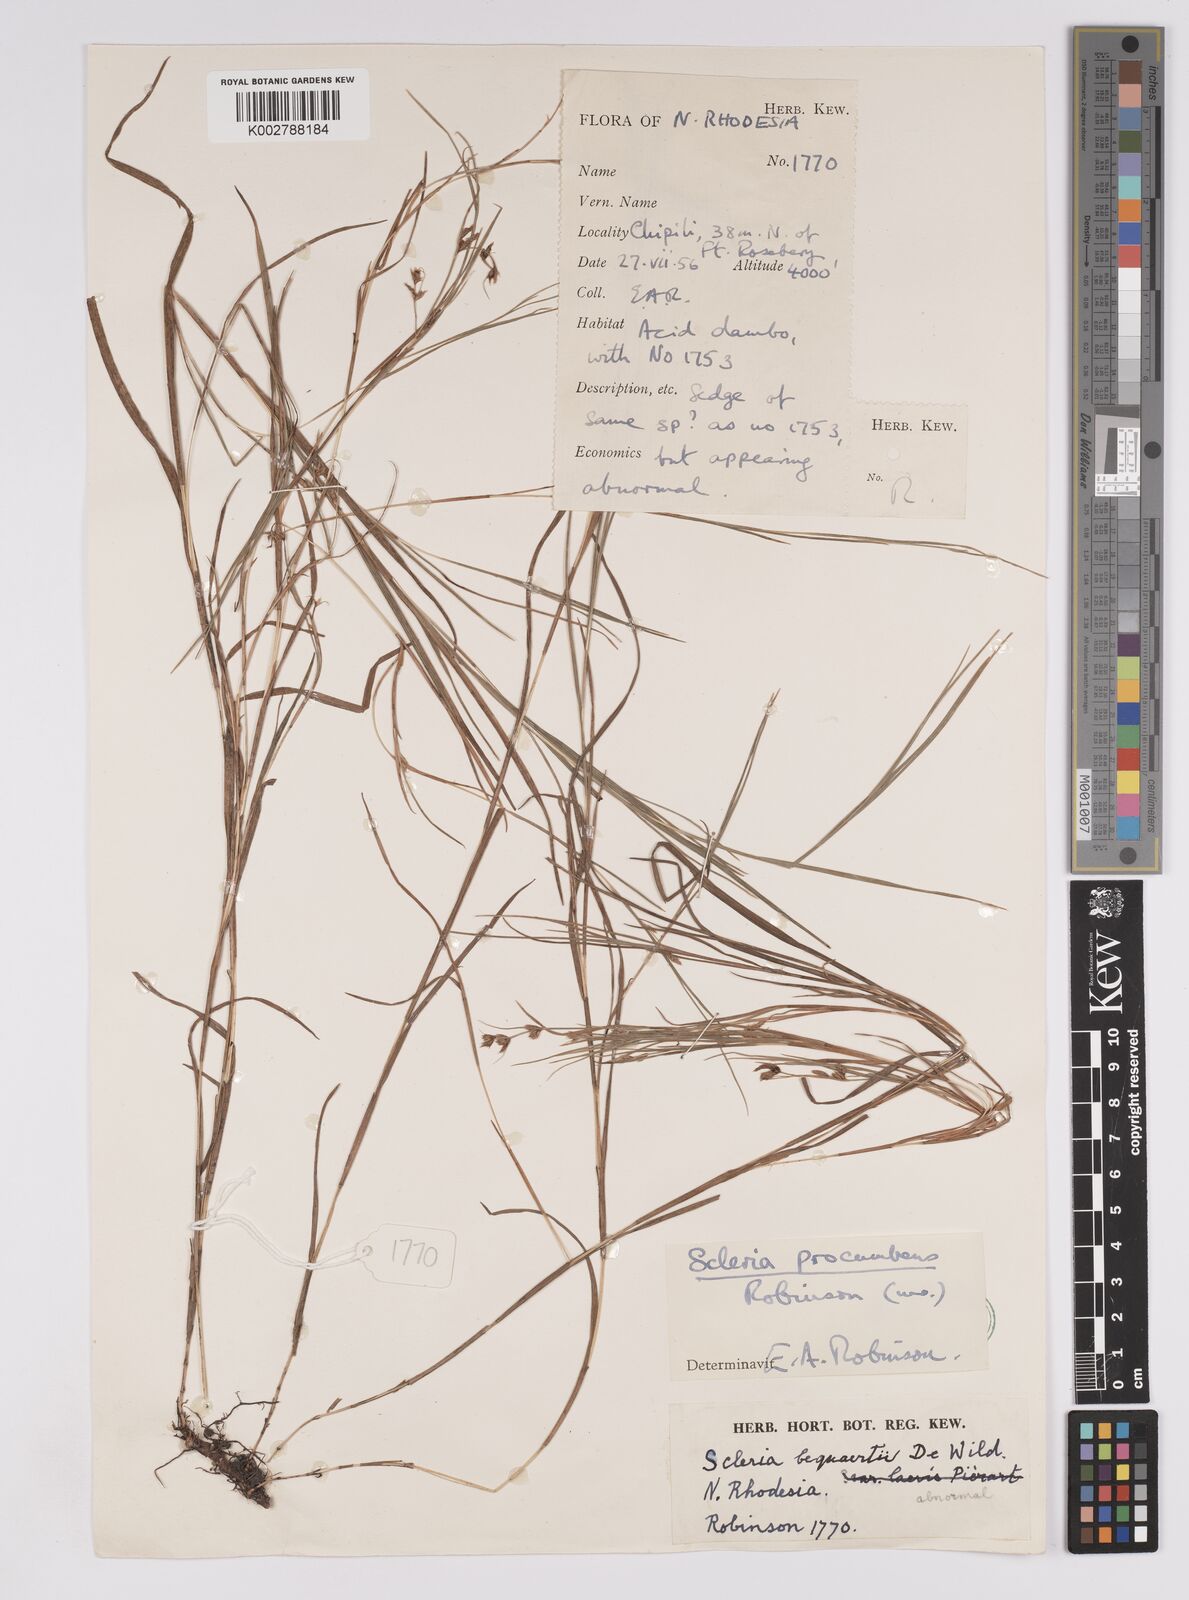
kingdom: Plantae
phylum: Tracheophyta
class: Liliopsida
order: Poales
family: Cyperaceae
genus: Scleria
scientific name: Scleria procumbens
